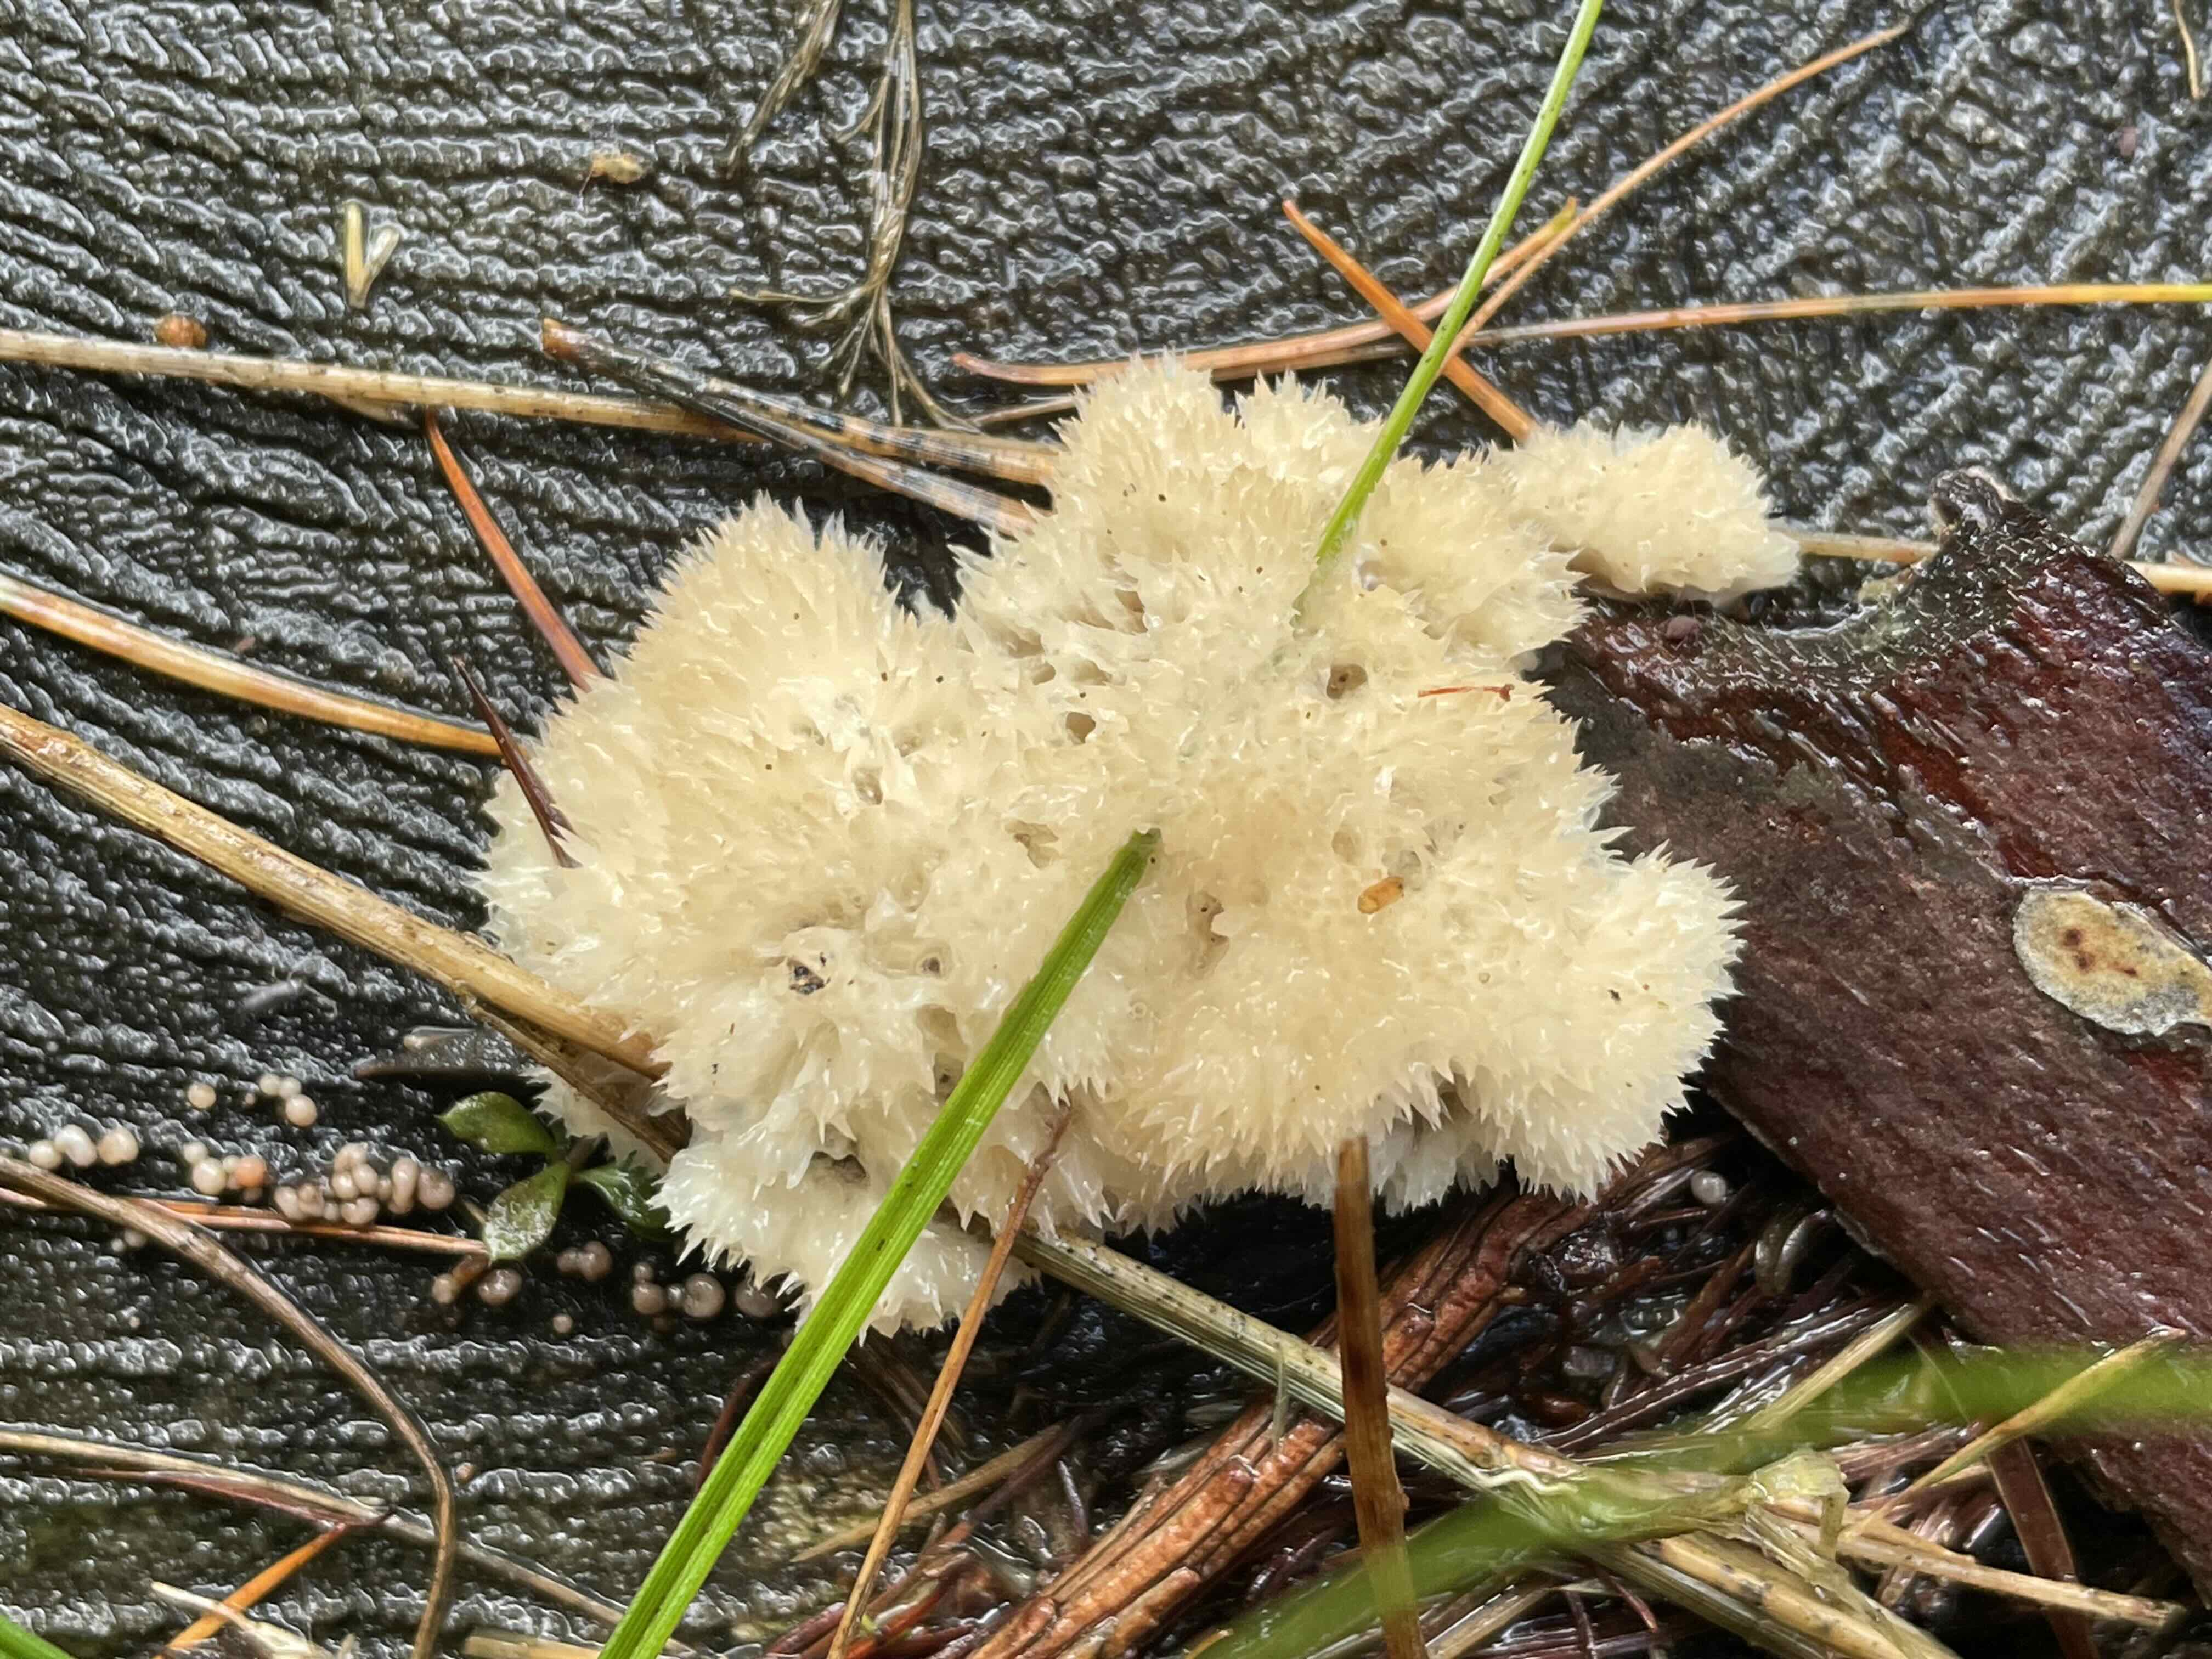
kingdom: Fungi
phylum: Basidiomycota
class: Agaricomycetes
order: Polyporales
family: Dacryobolaceae
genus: Postia
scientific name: Postia ptychogaster
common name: støvende kødporesvamp
